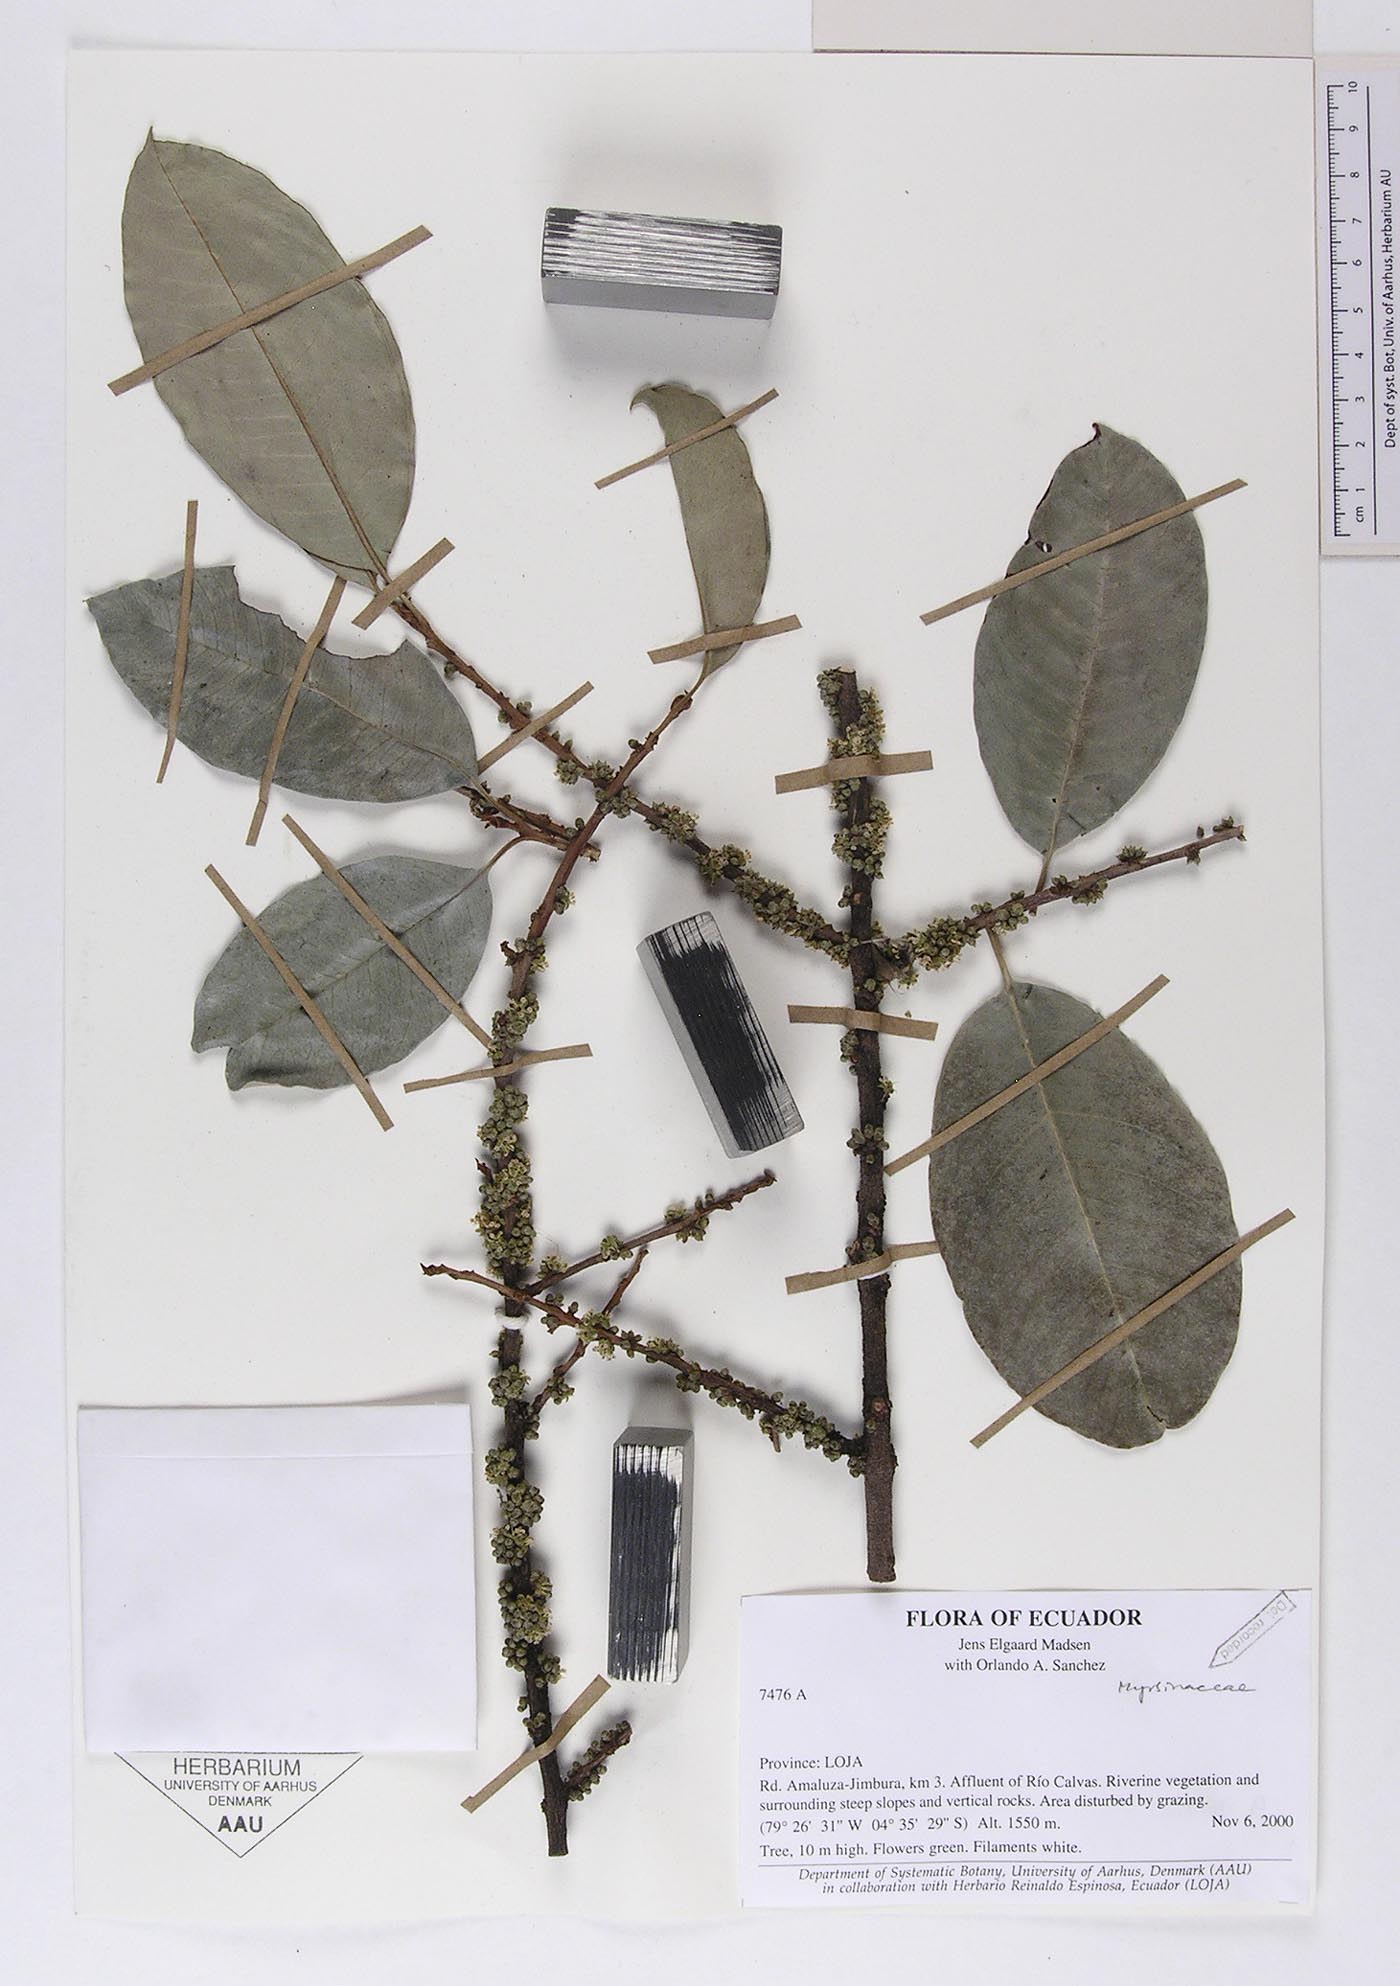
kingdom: Plantae
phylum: Tracheophyta
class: Magnoliopsida
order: Ericales
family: Primulaceae
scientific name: Primulaceae
